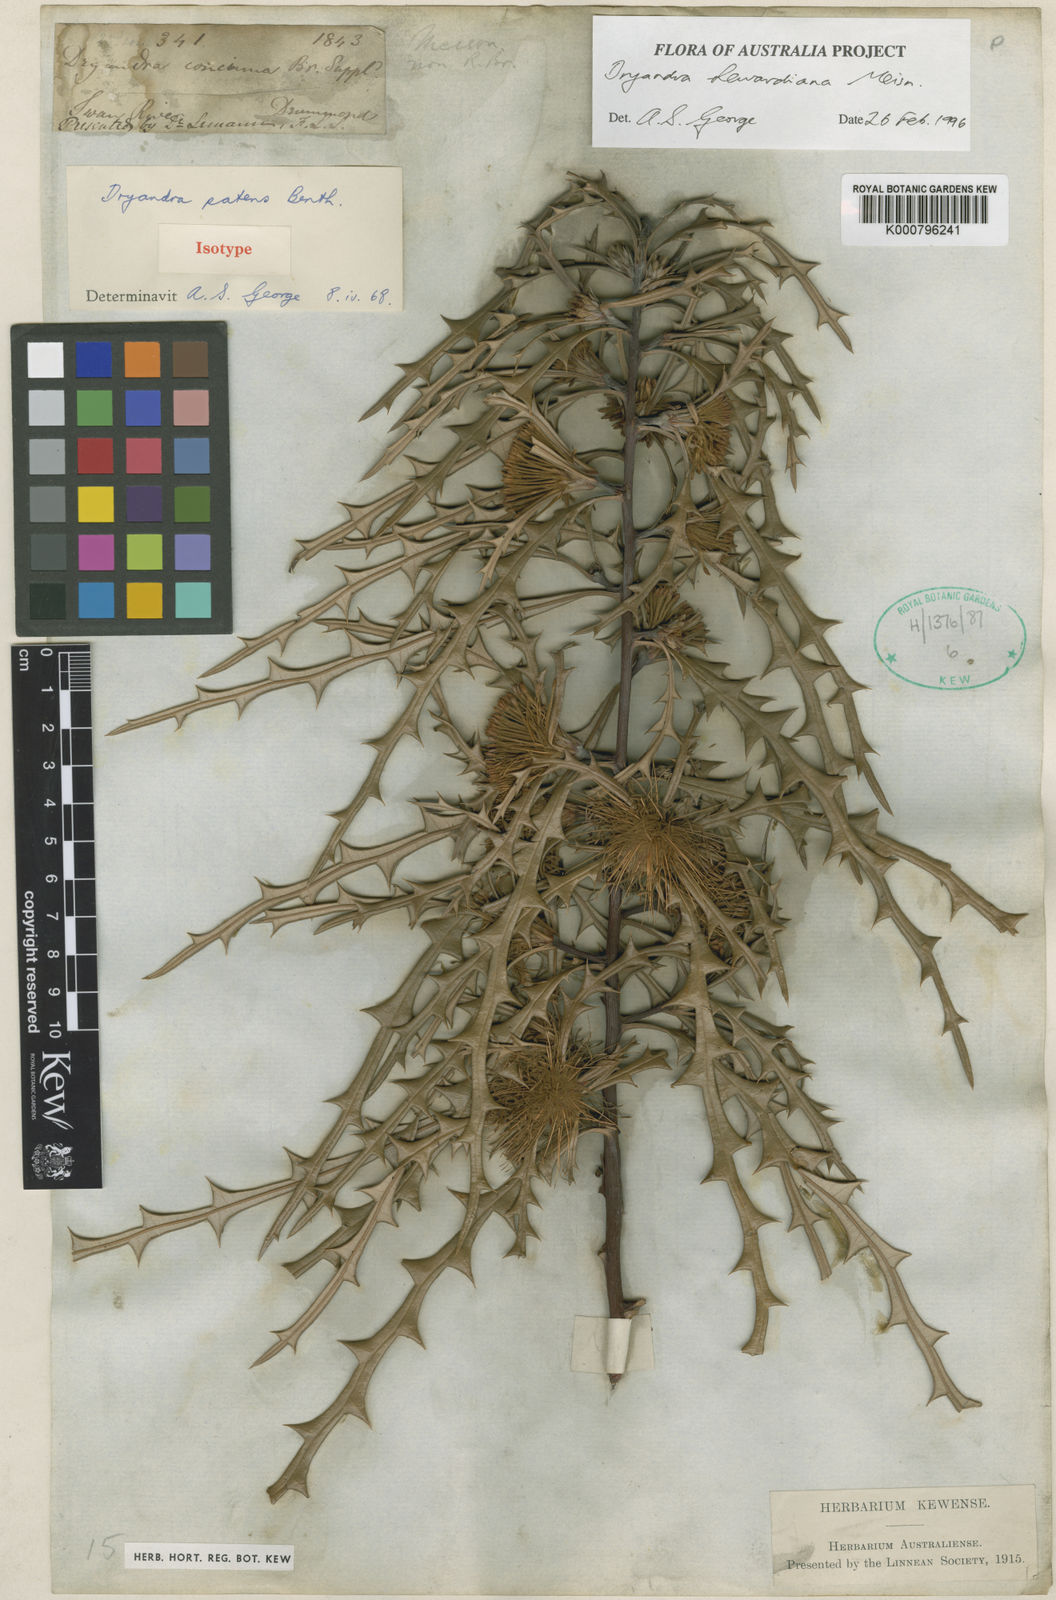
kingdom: Plantae
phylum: Tracheophyta
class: Magnoliopsida
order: Proteales
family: Proteaceae
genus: Banksia
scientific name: Banksia hewardiana
